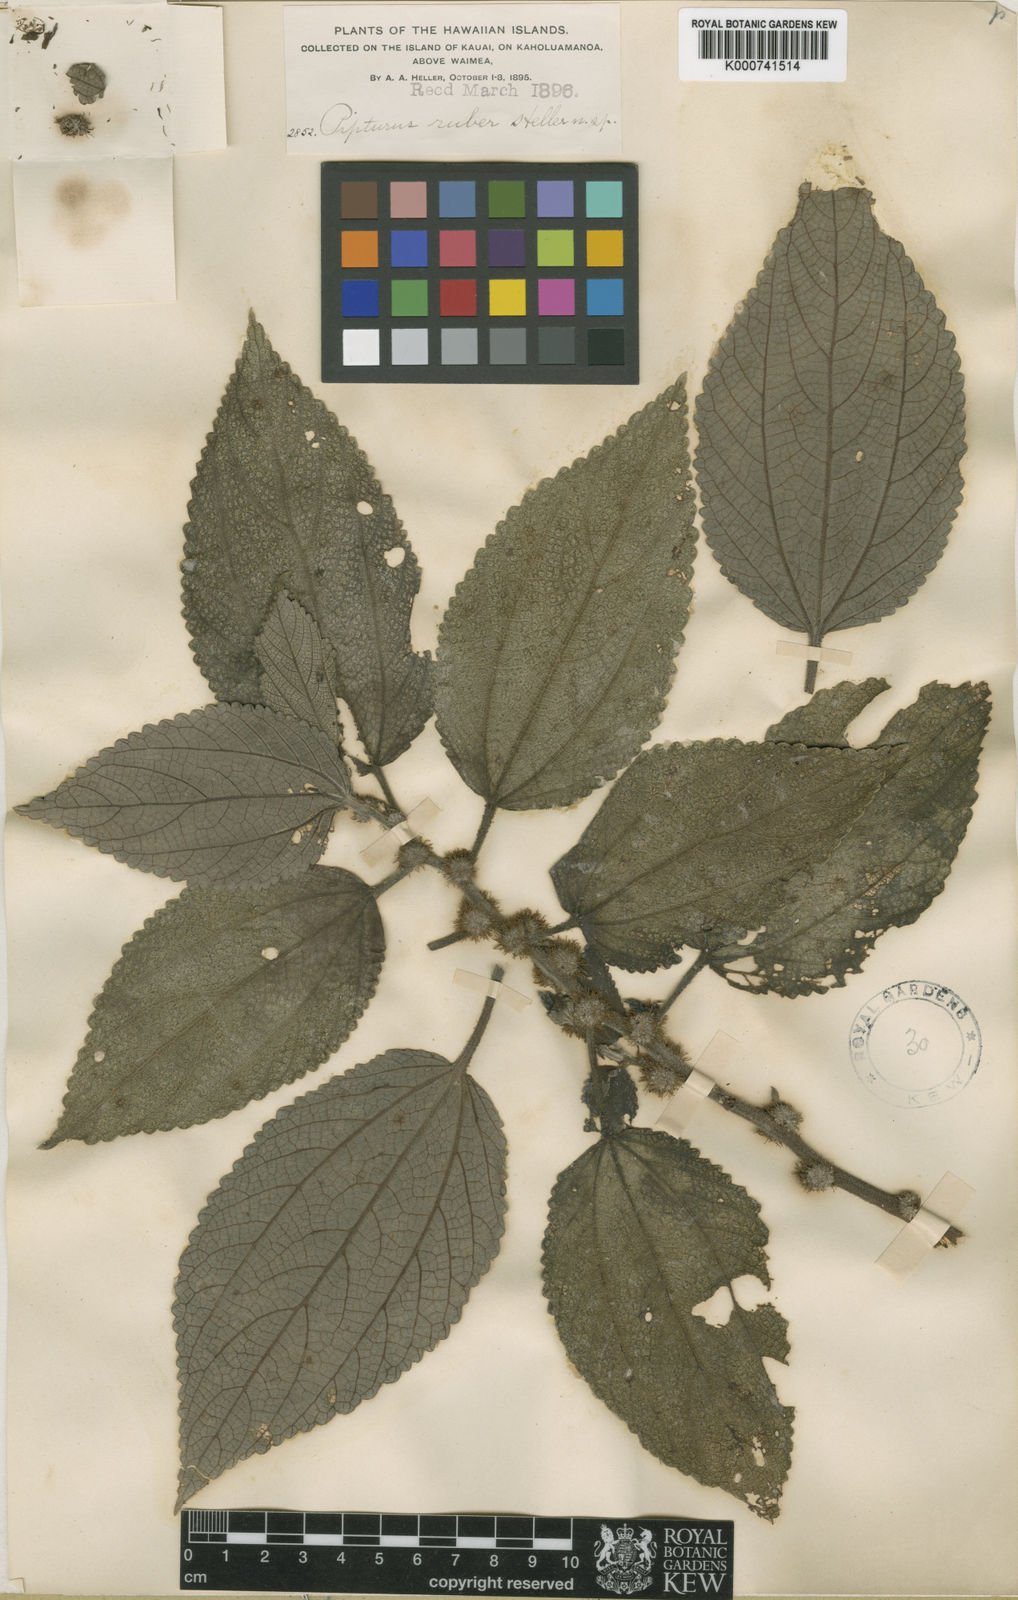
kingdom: Plantae
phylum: Tracheophyta
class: Magnoliopsida
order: Rosales
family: Urticaceae
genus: Pipturus
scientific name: Pipturus ruber
